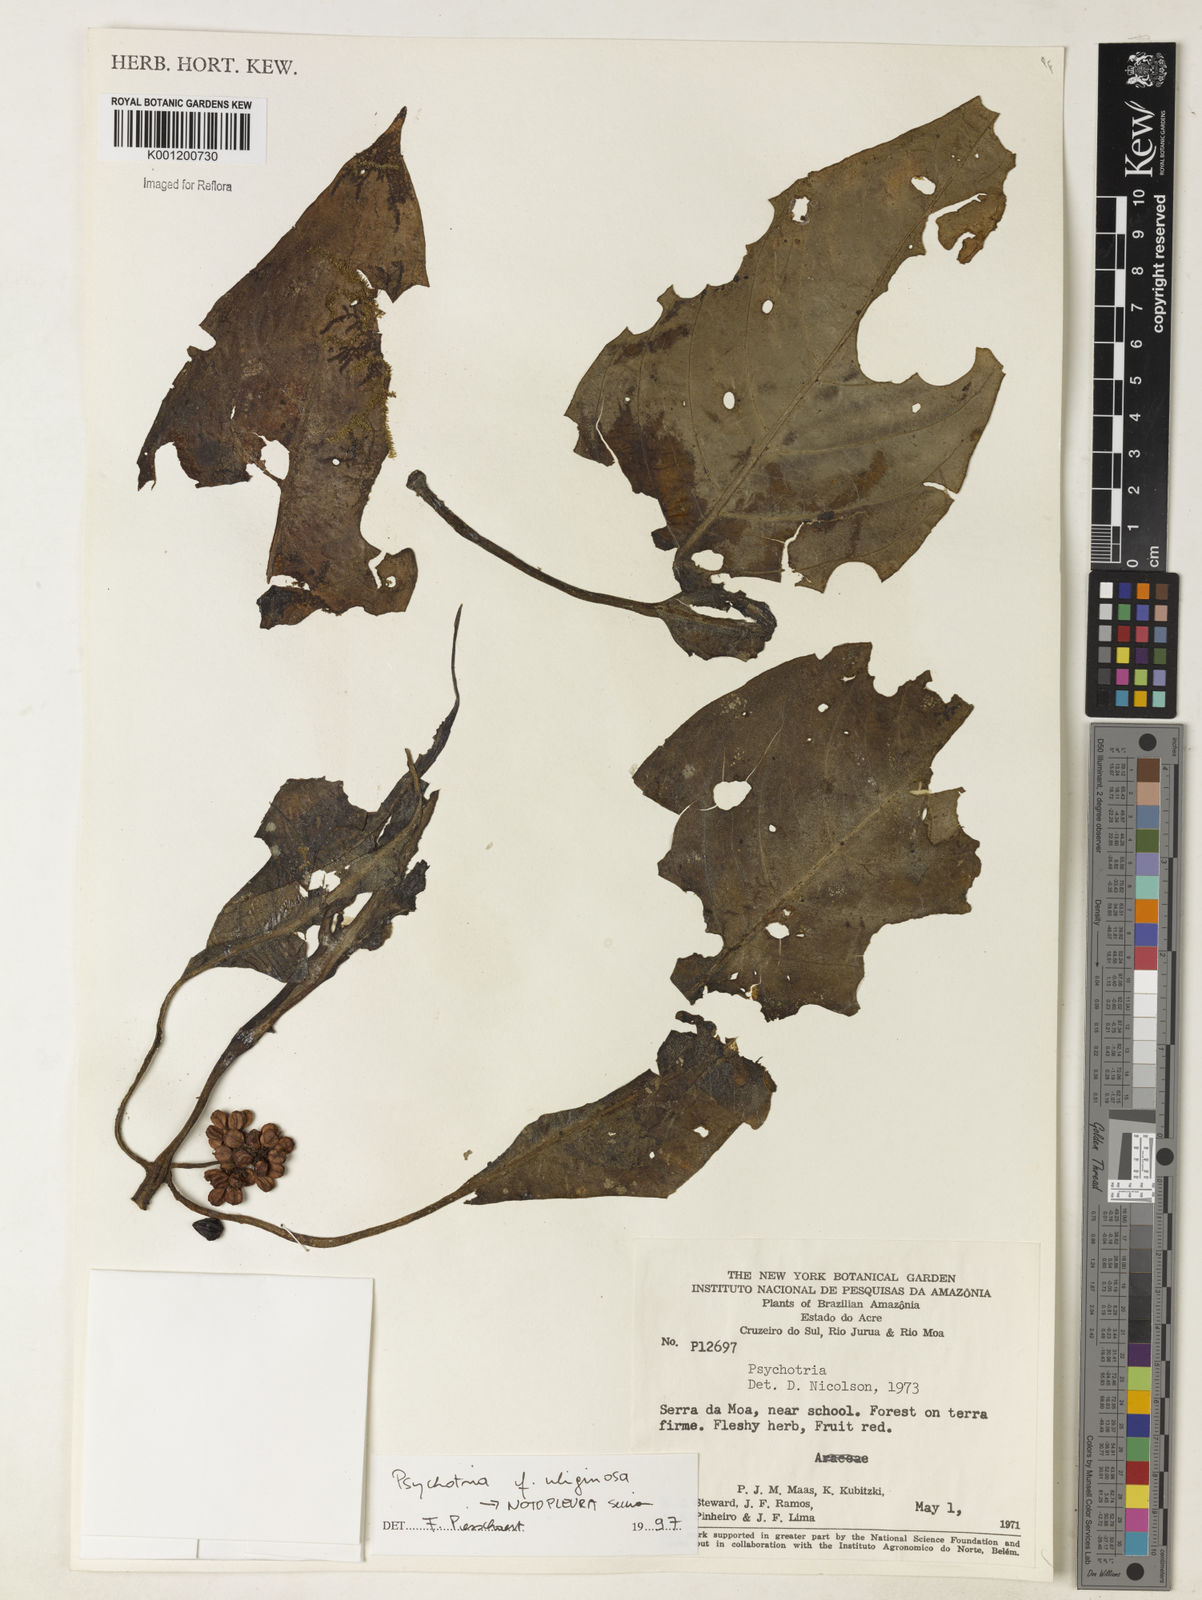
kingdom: Plantae
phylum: Tracheophyta
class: Magnoliopsida
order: Gentianales
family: Rubiaceae
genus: Psychotria
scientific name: Psychotria
